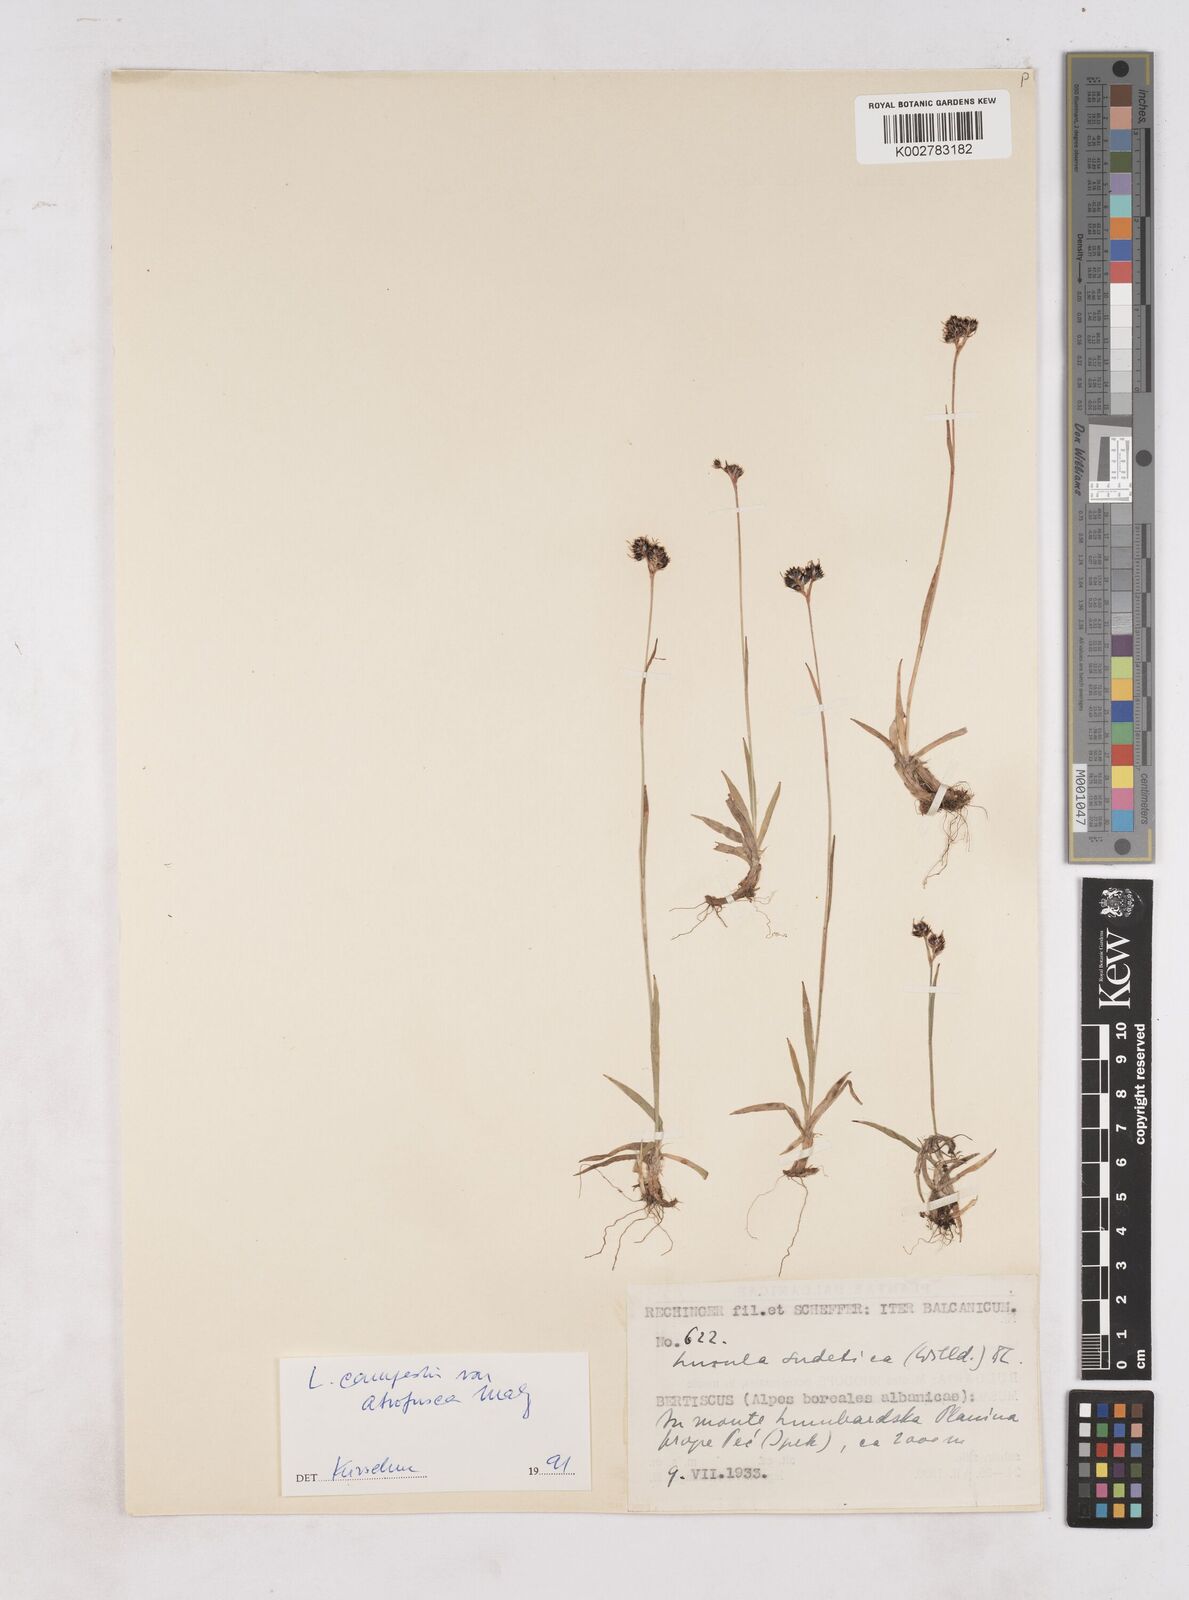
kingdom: Plantae
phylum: Tracheophyta
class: Liliopsida
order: Poales
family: Juncaceae
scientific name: Juncaceae
